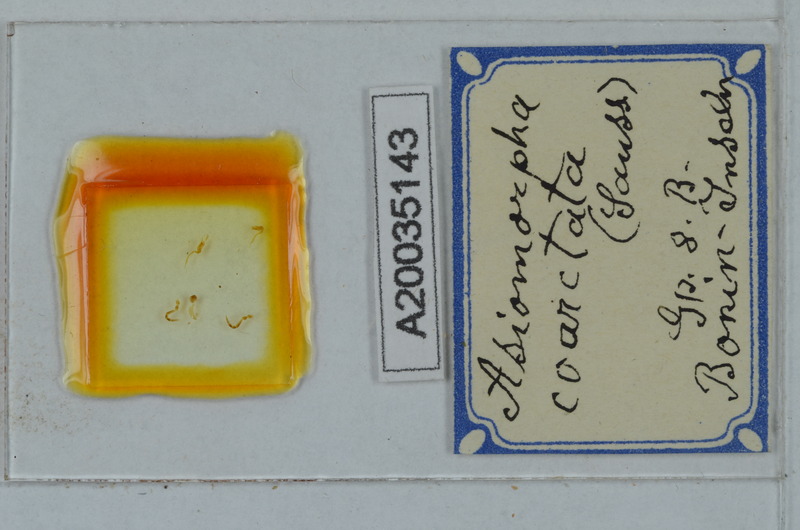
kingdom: Animalia
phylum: Arthropoda
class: Diplopoda
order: Polydesmida
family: Paradoxosomatidae
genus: Asiomorpha
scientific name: Asiomorpha coarctata
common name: Millipede
